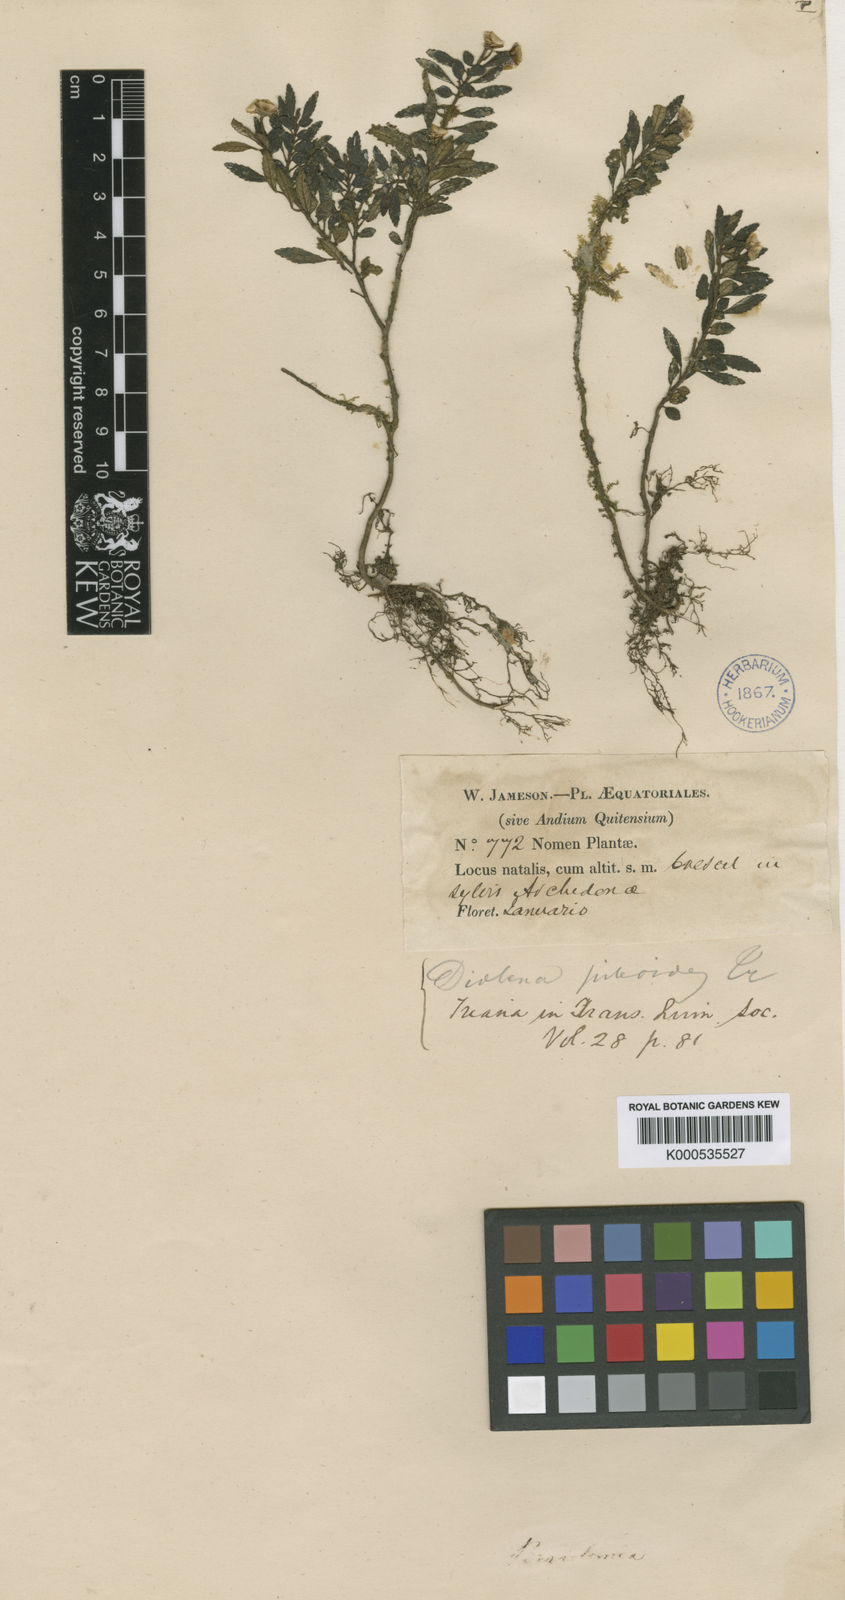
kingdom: Plantae
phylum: Tracheophyta
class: Magnoliopsida
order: Myrtales
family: Melastomataceae
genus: Triolena
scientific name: Triolena pileoides
